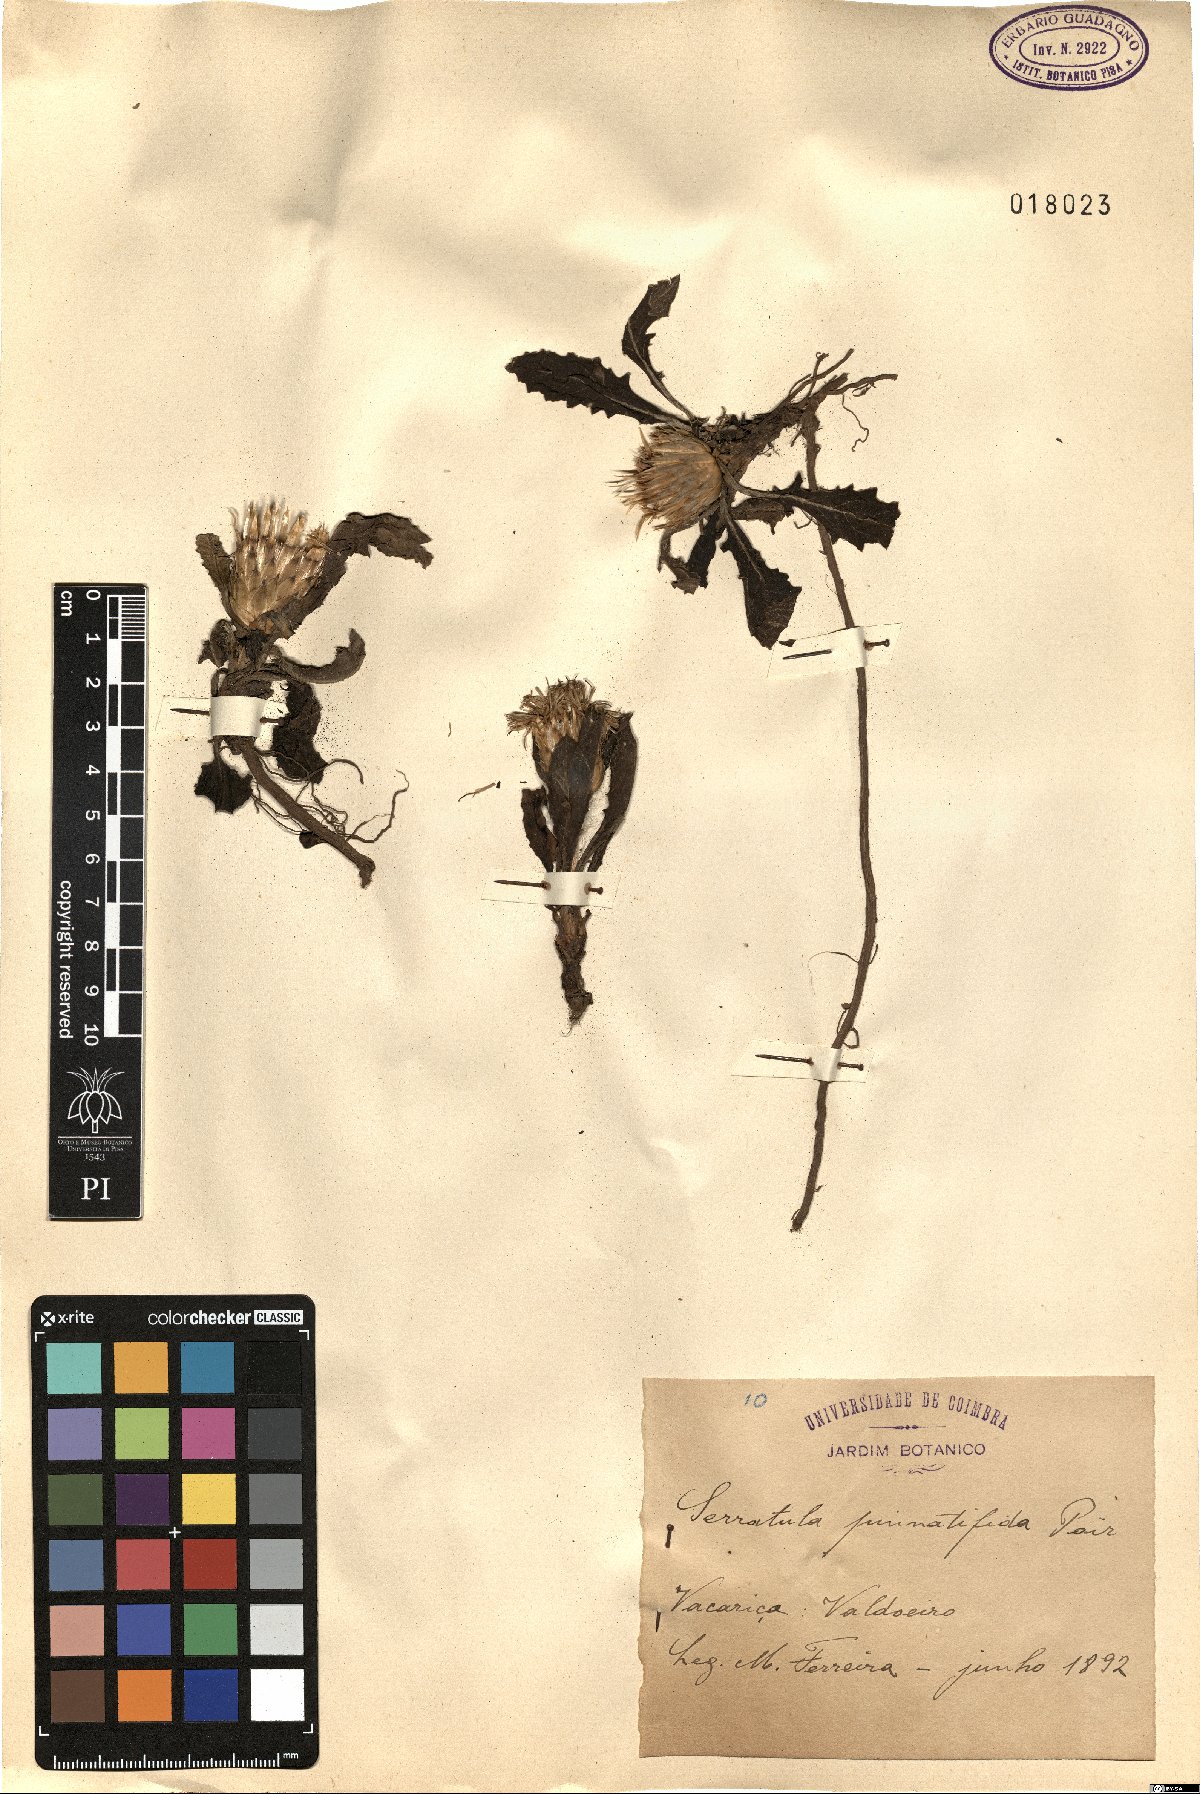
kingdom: Plantae
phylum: Tracheophyta
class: Magnoliopsida
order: Asterales
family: Asteraceae
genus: Klasea
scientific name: Klasea pinnatifida
